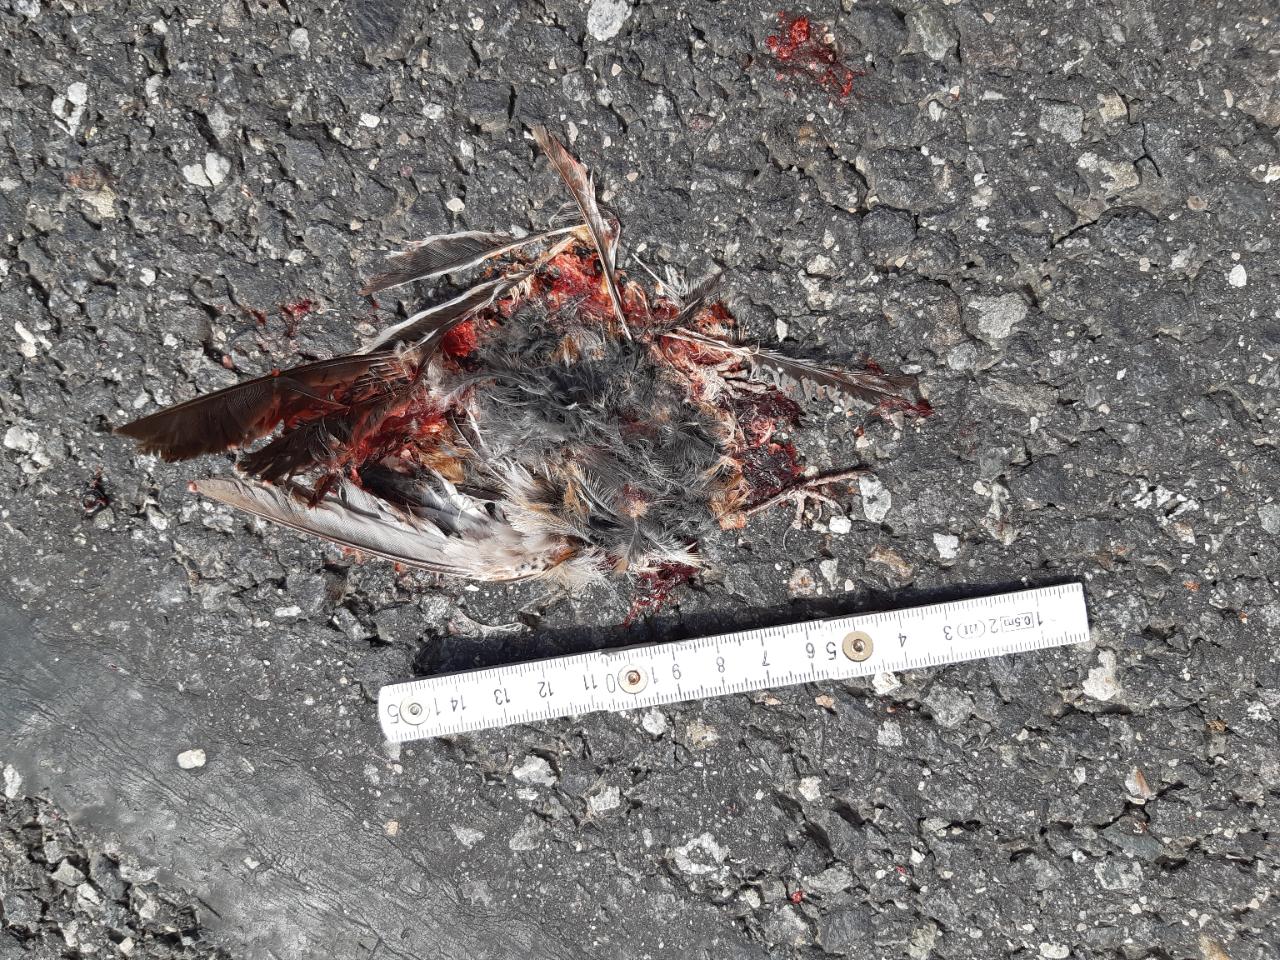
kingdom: Animalia
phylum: Chordata
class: Aves
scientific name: Aves
